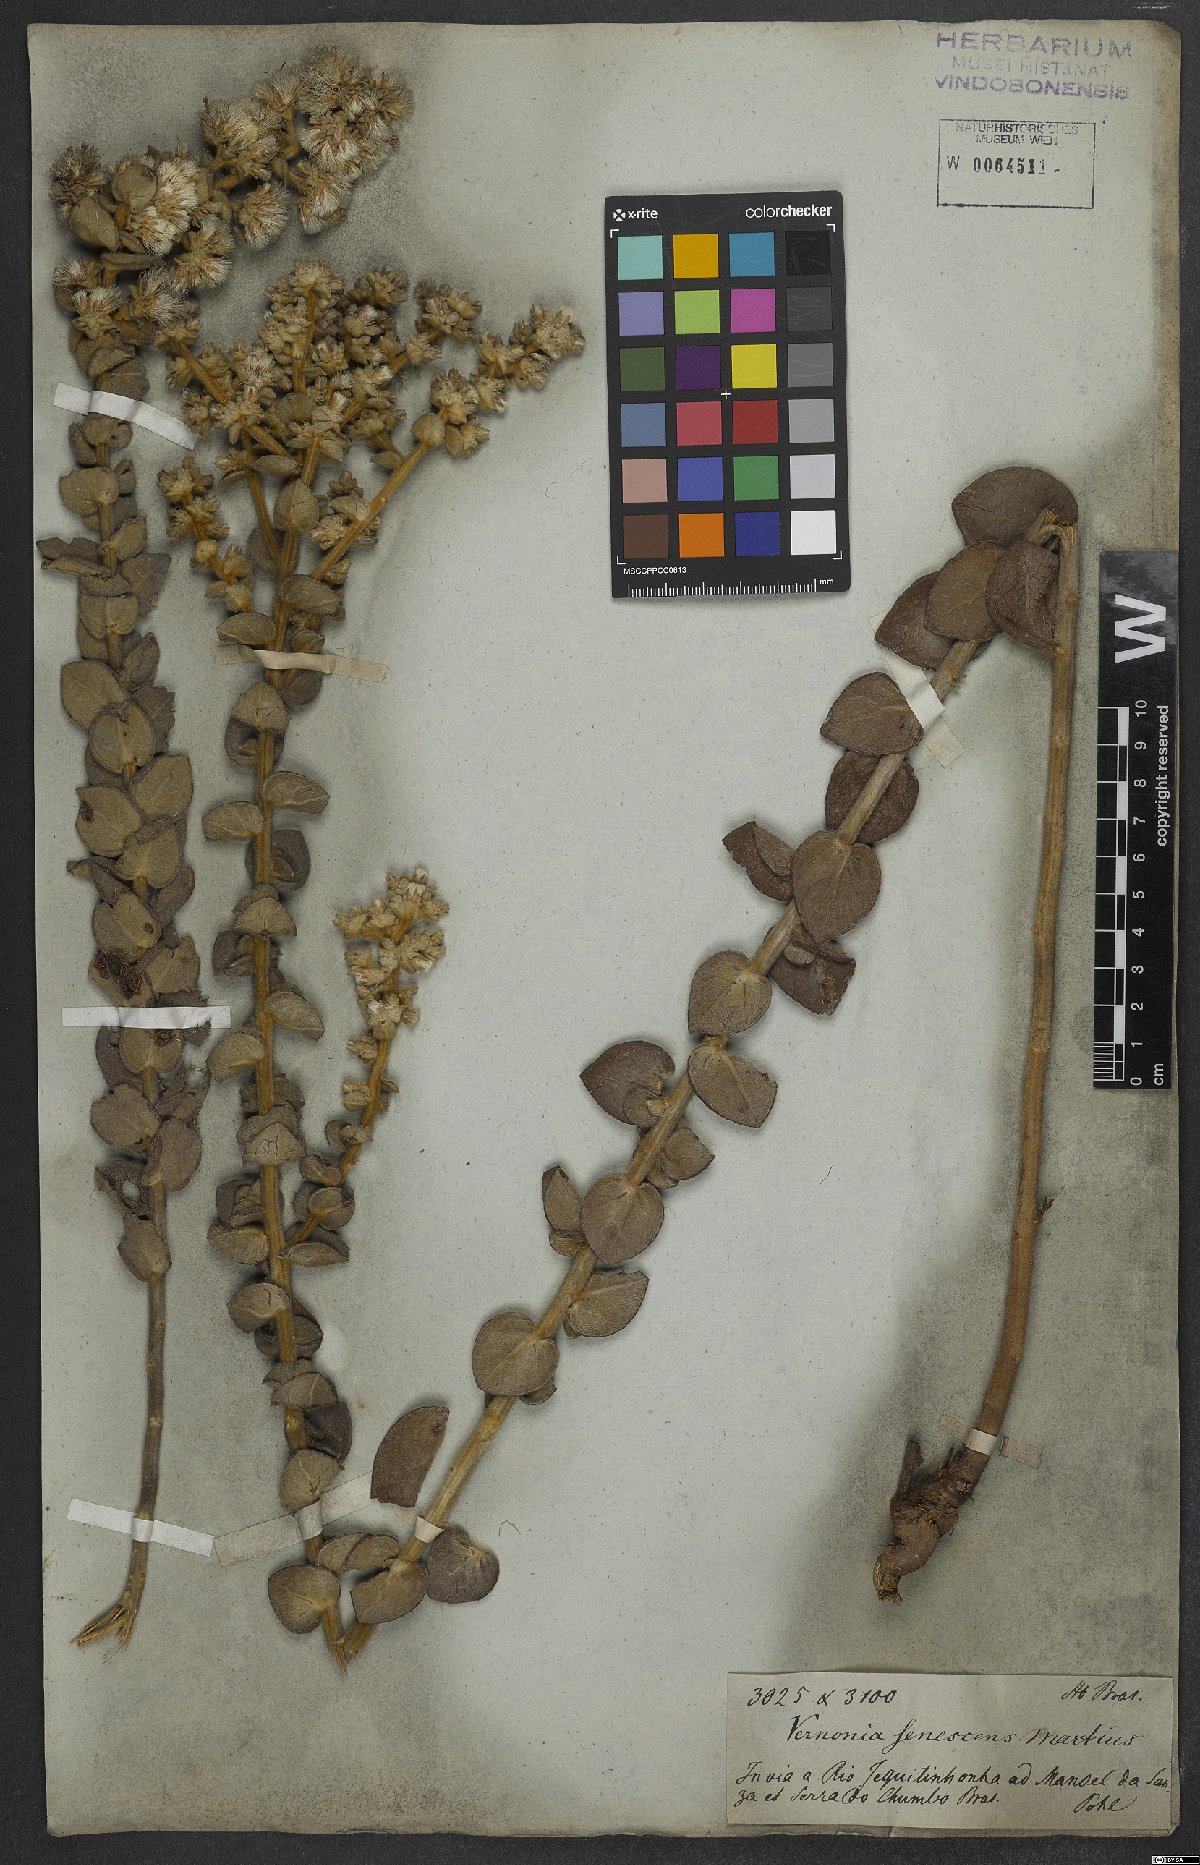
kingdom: Plantae
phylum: Tracheophyta
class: Magnoliopsida
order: Asterales
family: Asteraceae
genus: Lepidaploa
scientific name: Lepidaploa barbata
